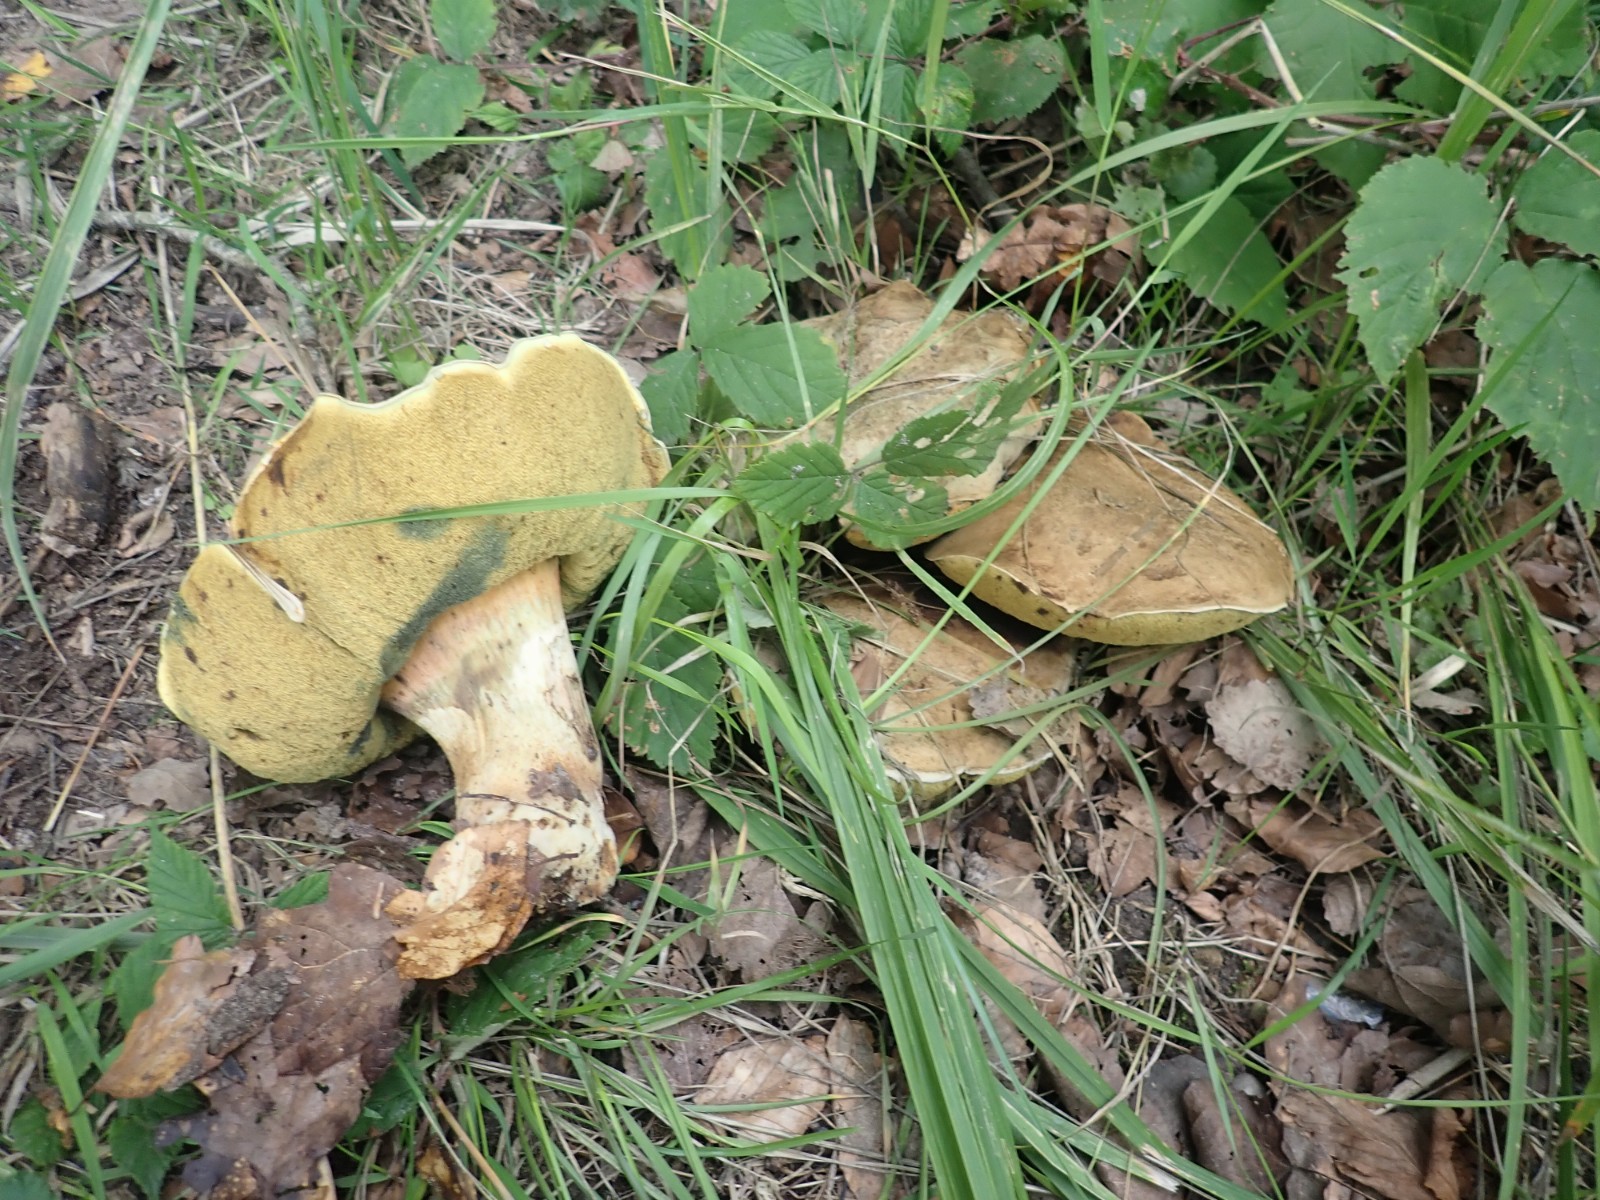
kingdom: Fungi
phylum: Basidiomycota
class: Agaricomycetes
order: Boletales
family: Boletaceae
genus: Caloboletus
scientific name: Caloboletus radicans
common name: rod-rørhat
